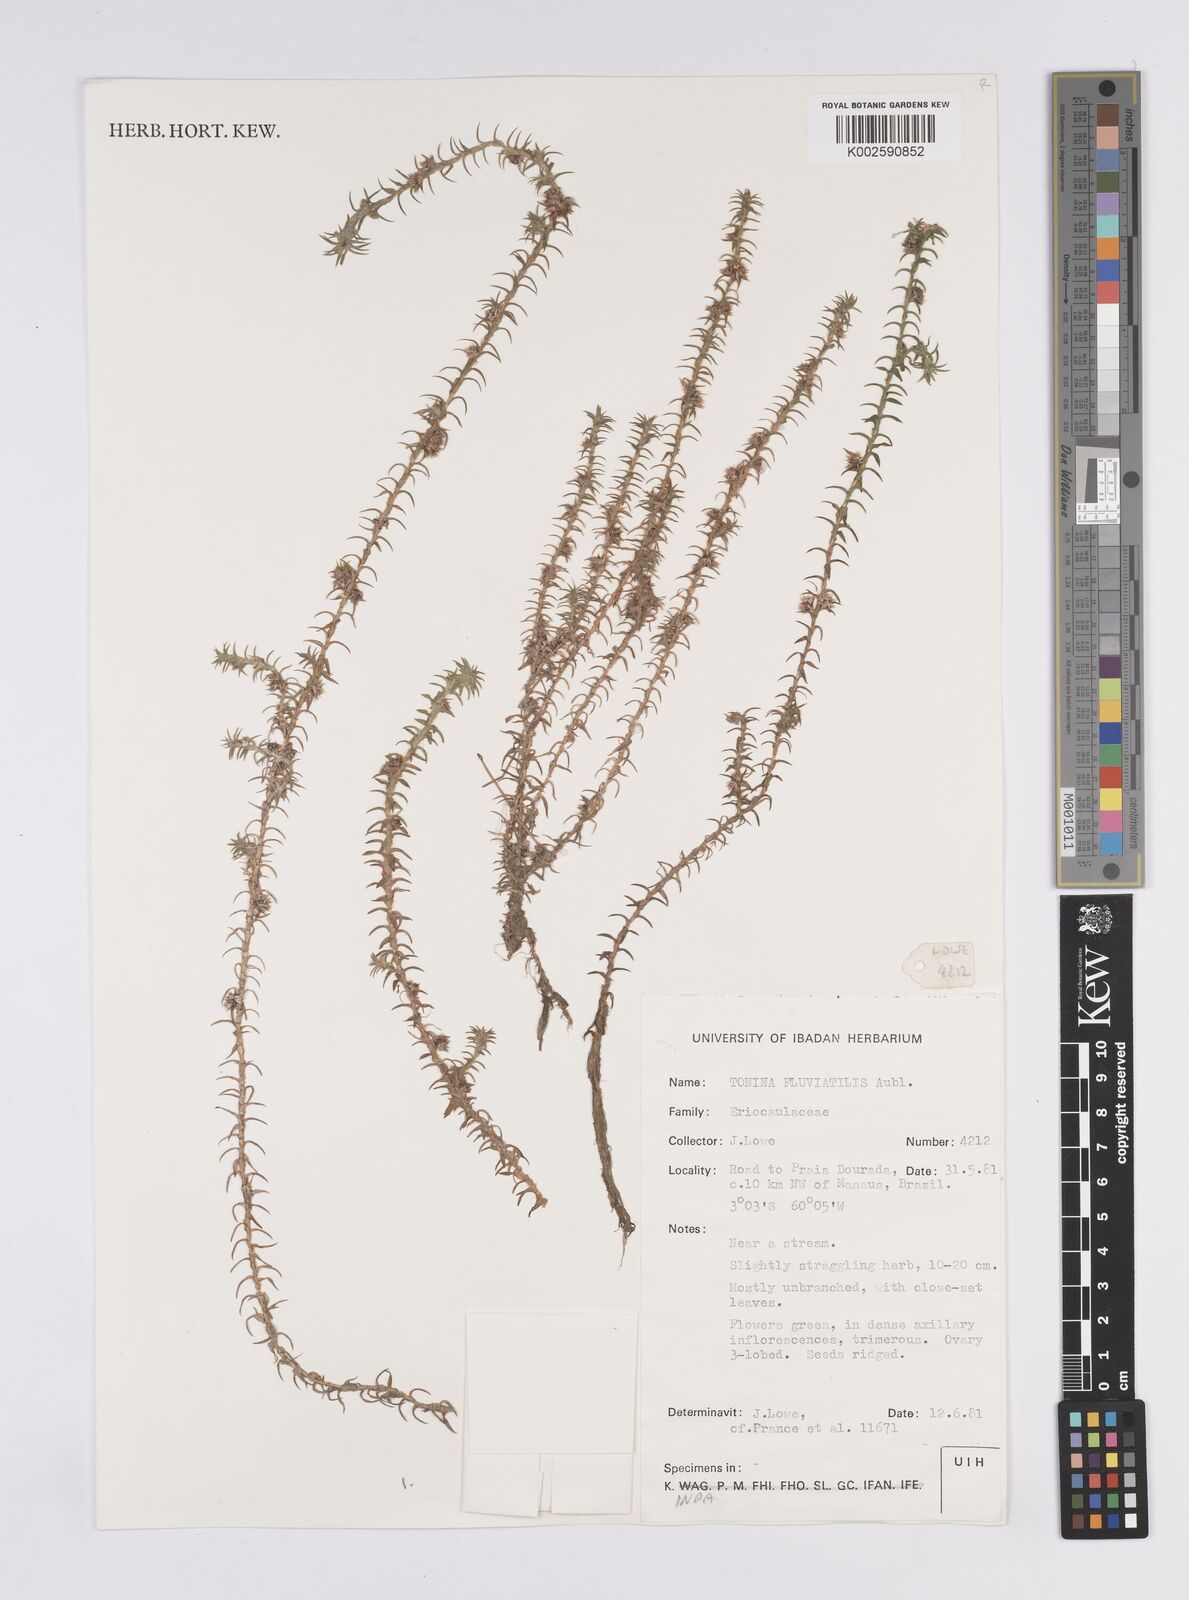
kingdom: Plantae
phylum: Tracheophyta
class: Liliopsida
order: Poales
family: Eriocaulaceae
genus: Paepalanthus
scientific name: Paepalanthus fluviatilis
